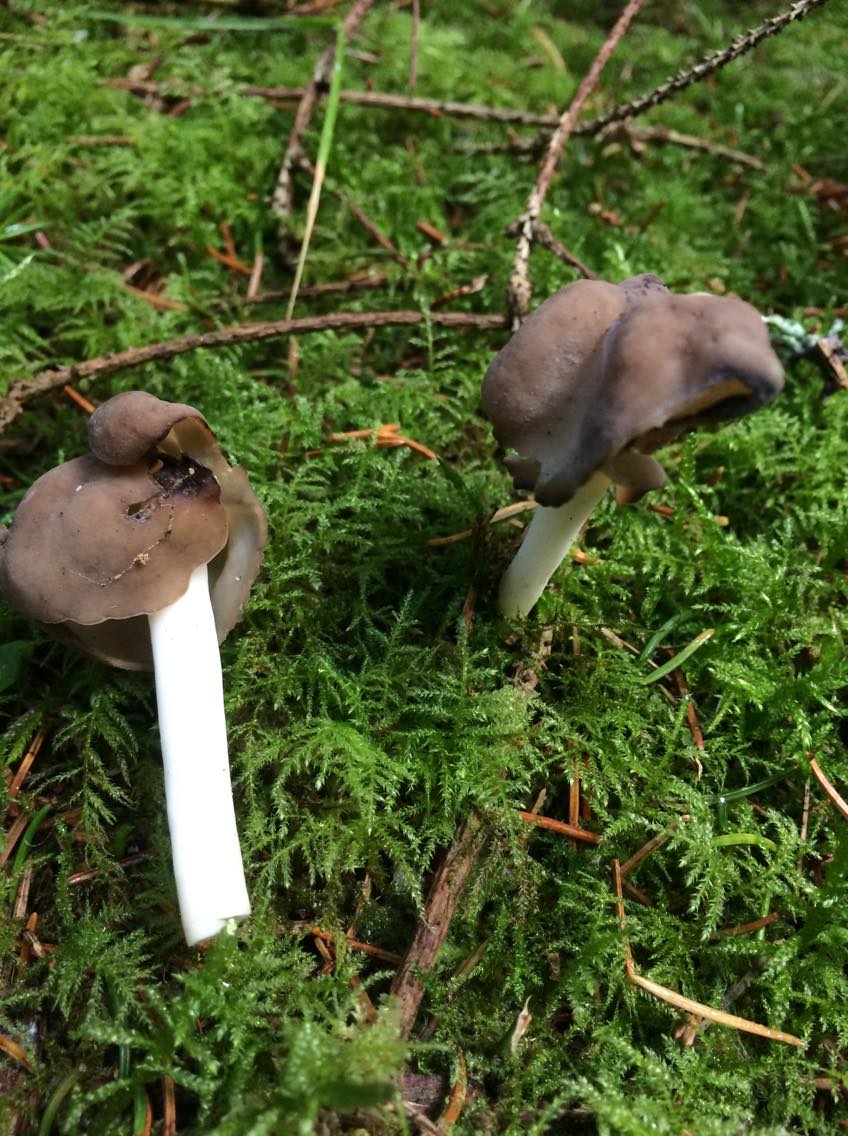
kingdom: Fungi
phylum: Ascomycota
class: Pezizomycetes
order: Pezizales
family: Helvellaceae
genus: Helvella
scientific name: Helvella elastica
